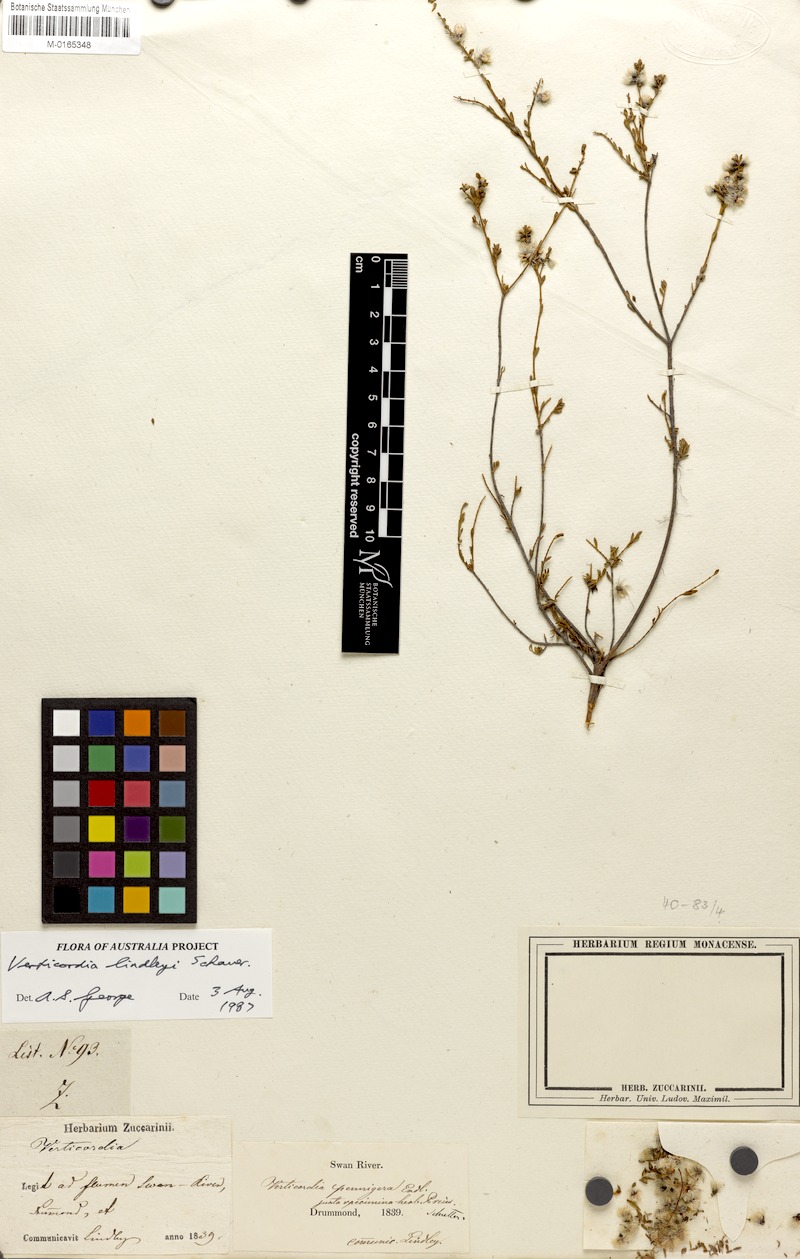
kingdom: Plantae
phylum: Tracheophyta
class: Magnoliopsida
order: Myrtales
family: Myrtaceae
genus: Verticordia
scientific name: Verticordia lindleyi
